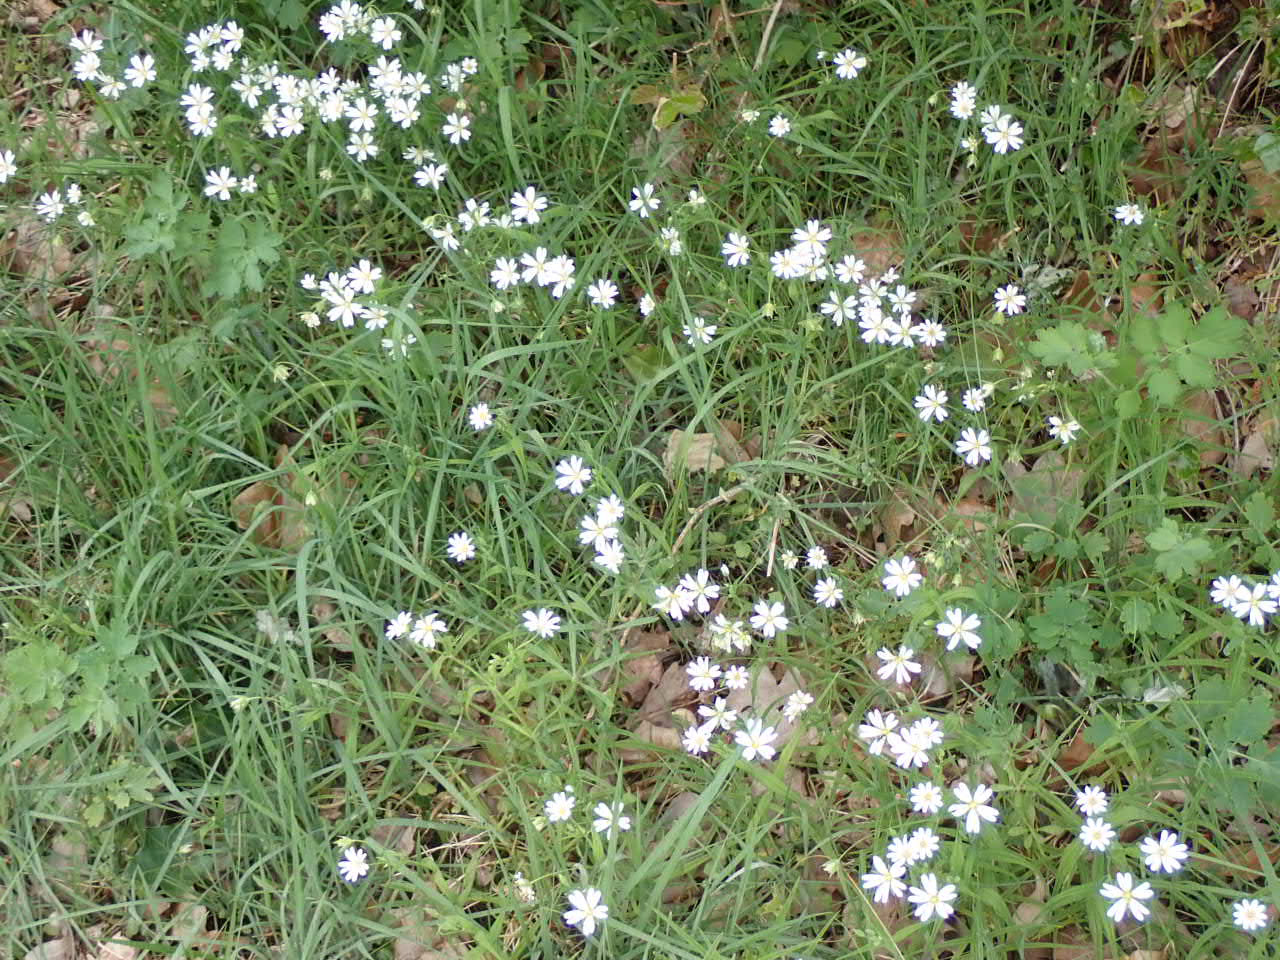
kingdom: Plantae
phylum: Tracheophyta
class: Magnoliopsida
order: Caryophyllales
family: Caryophyllaceae
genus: Rabelera
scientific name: Rabelera holostea
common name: Stor fladstjerne
